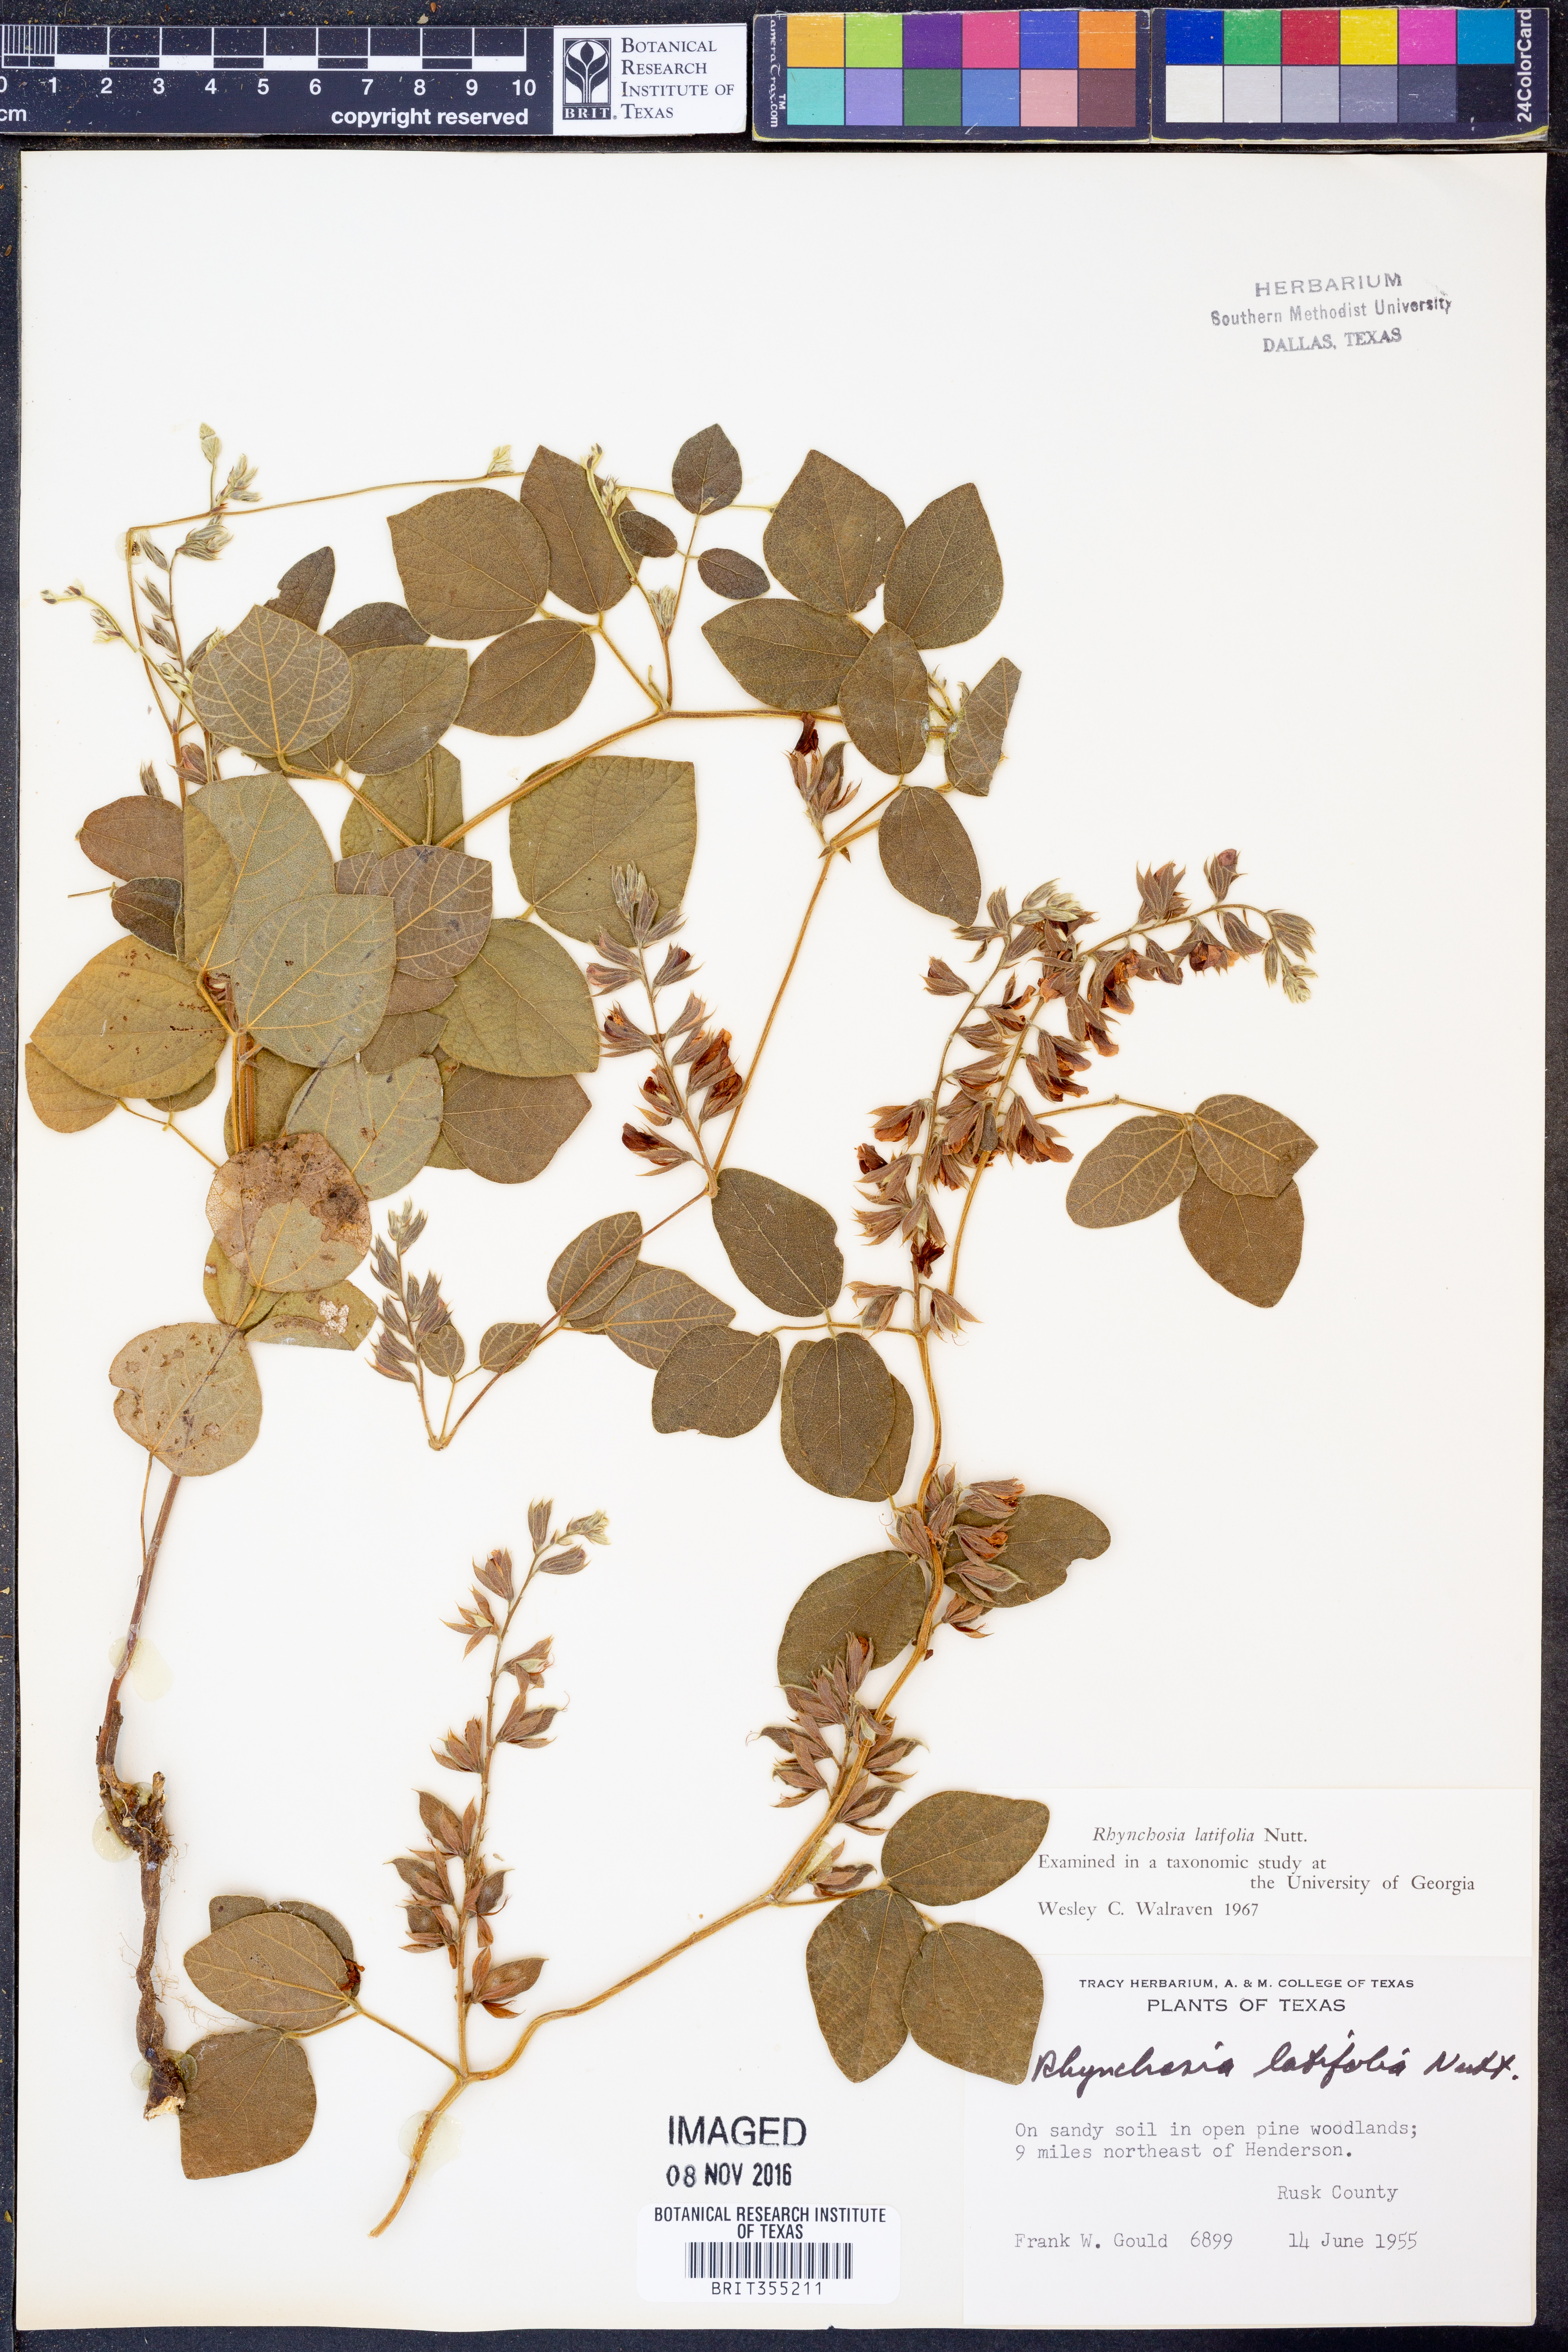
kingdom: Plantae
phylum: Tracheophyta
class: Magnoliopsida
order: Fabales
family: Fabaceae
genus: Rhynchosia
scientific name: Rhynchosia latifolia
